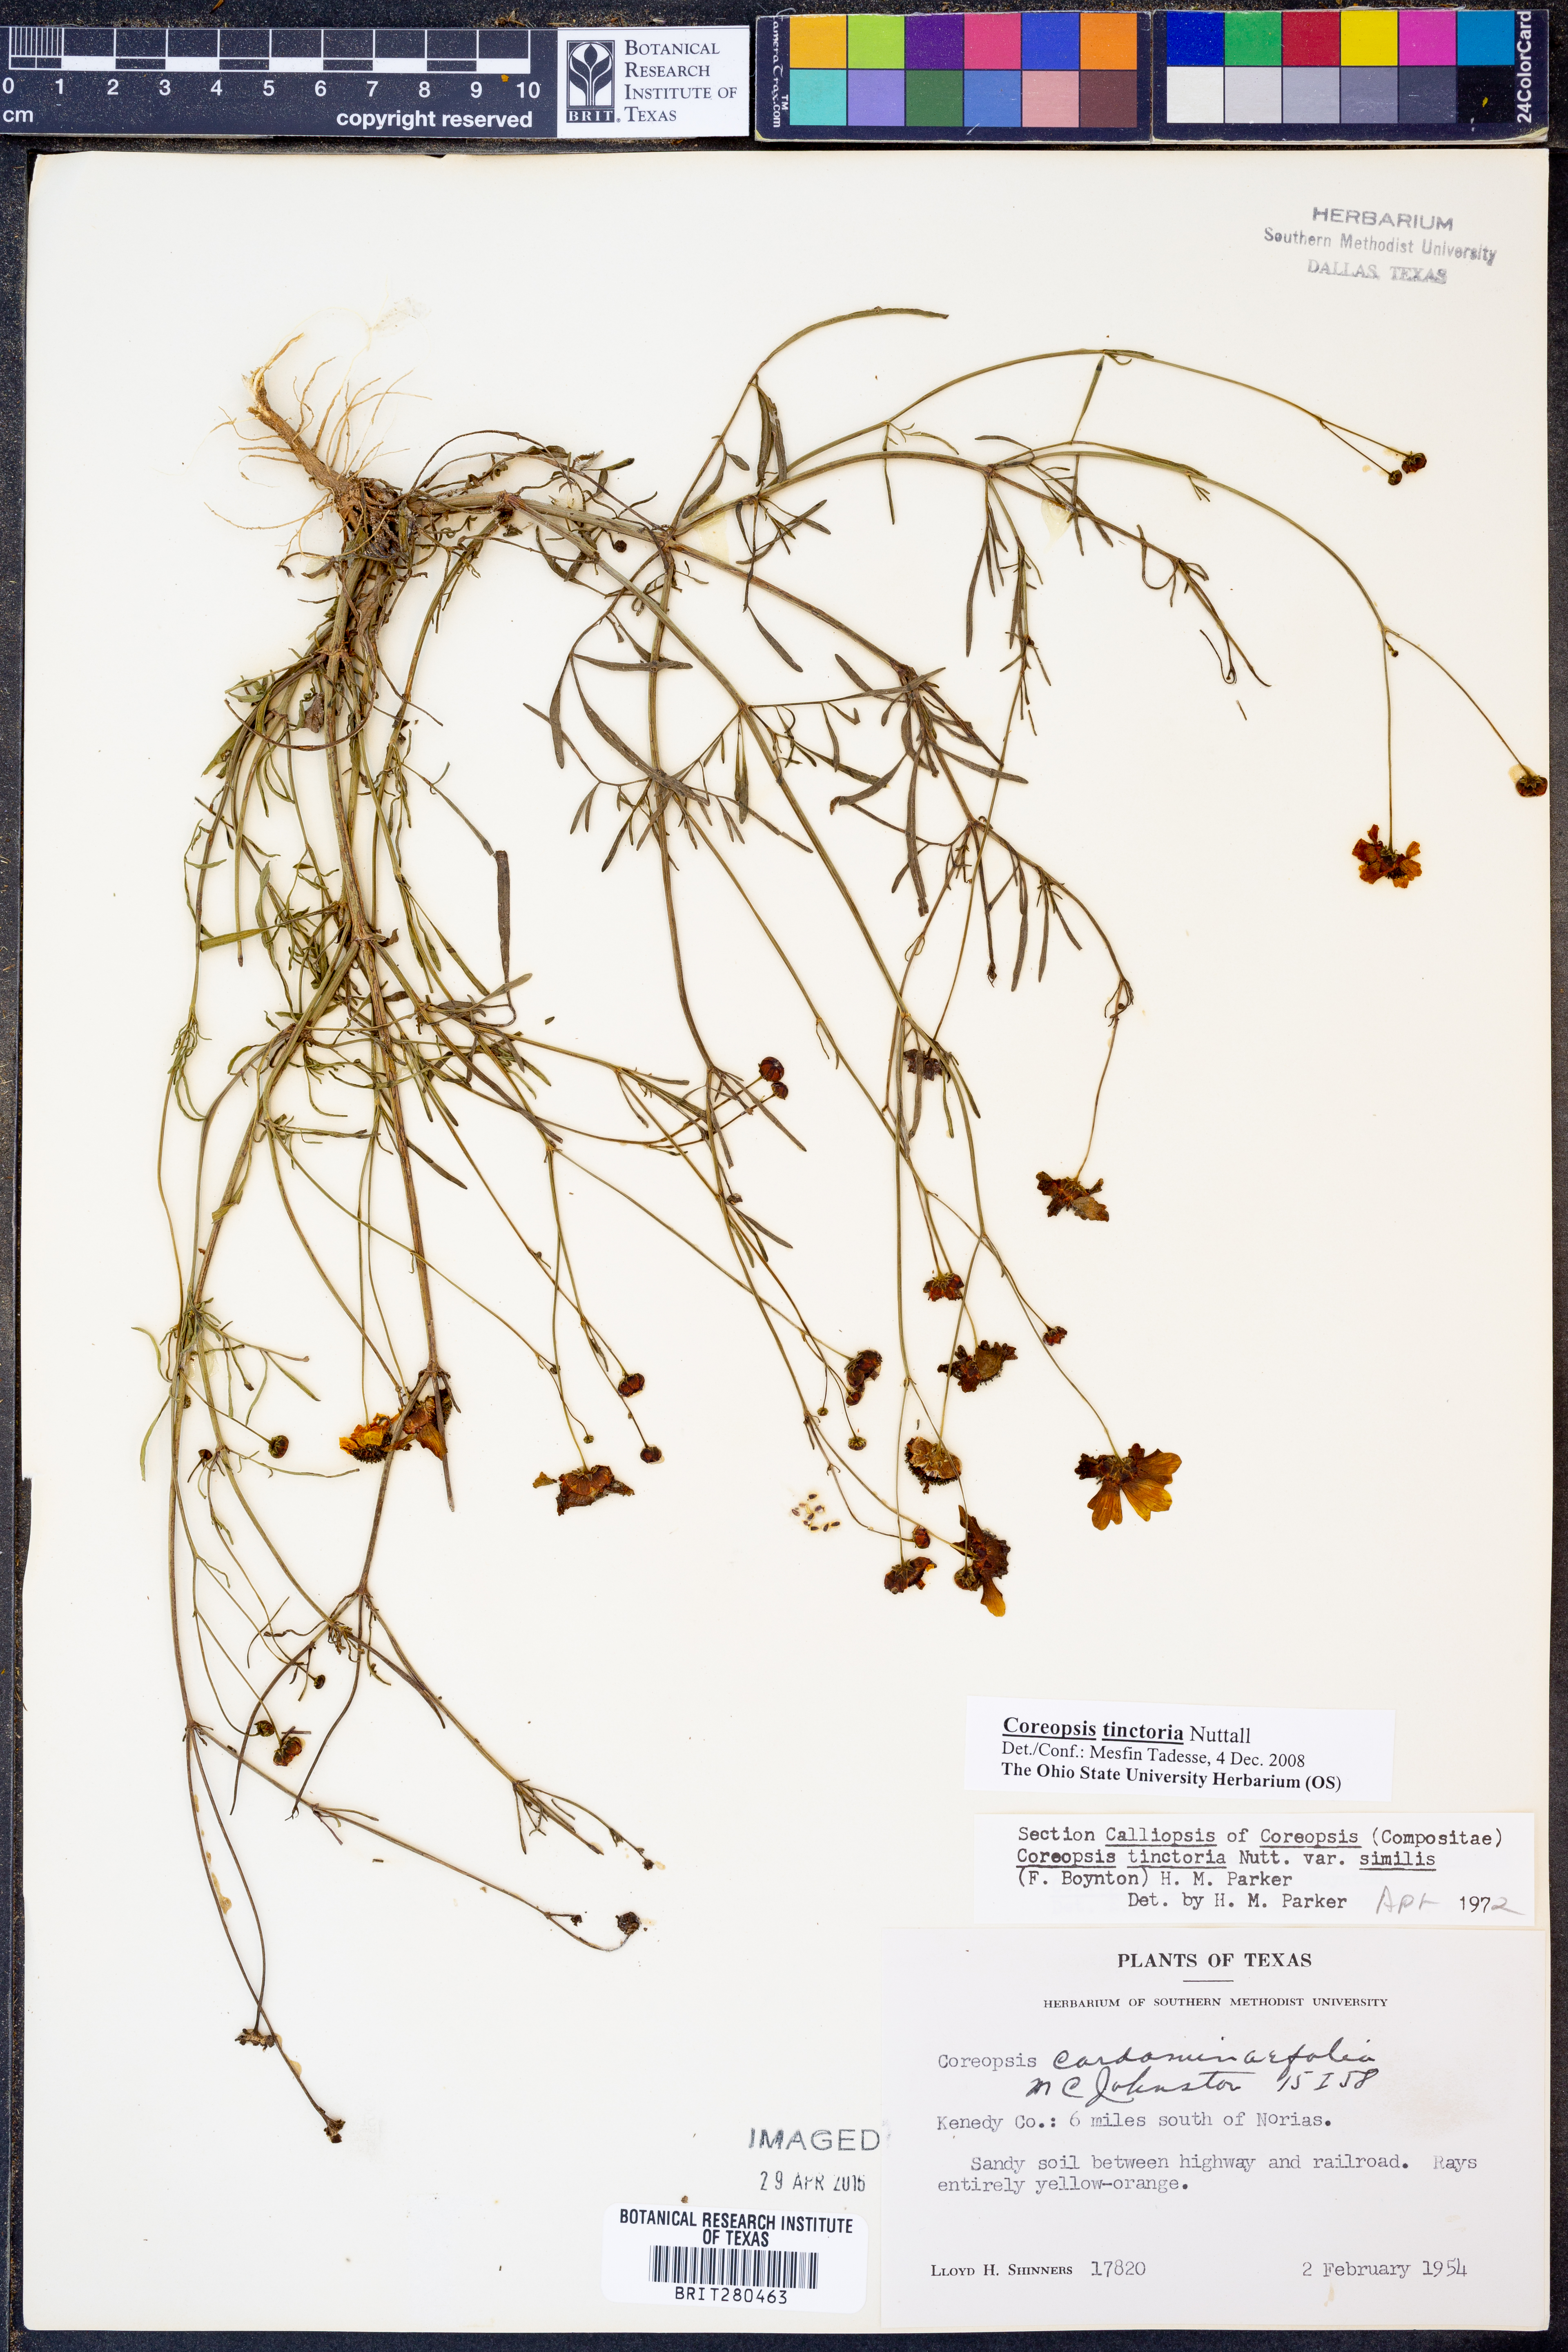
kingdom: Plantae
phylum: Tracheophyta
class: Magnoliopsida
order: Asterales
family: Asteraceae
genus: Coreopsis
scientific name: Coreopsis tinctoria
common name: Garden tickseed
